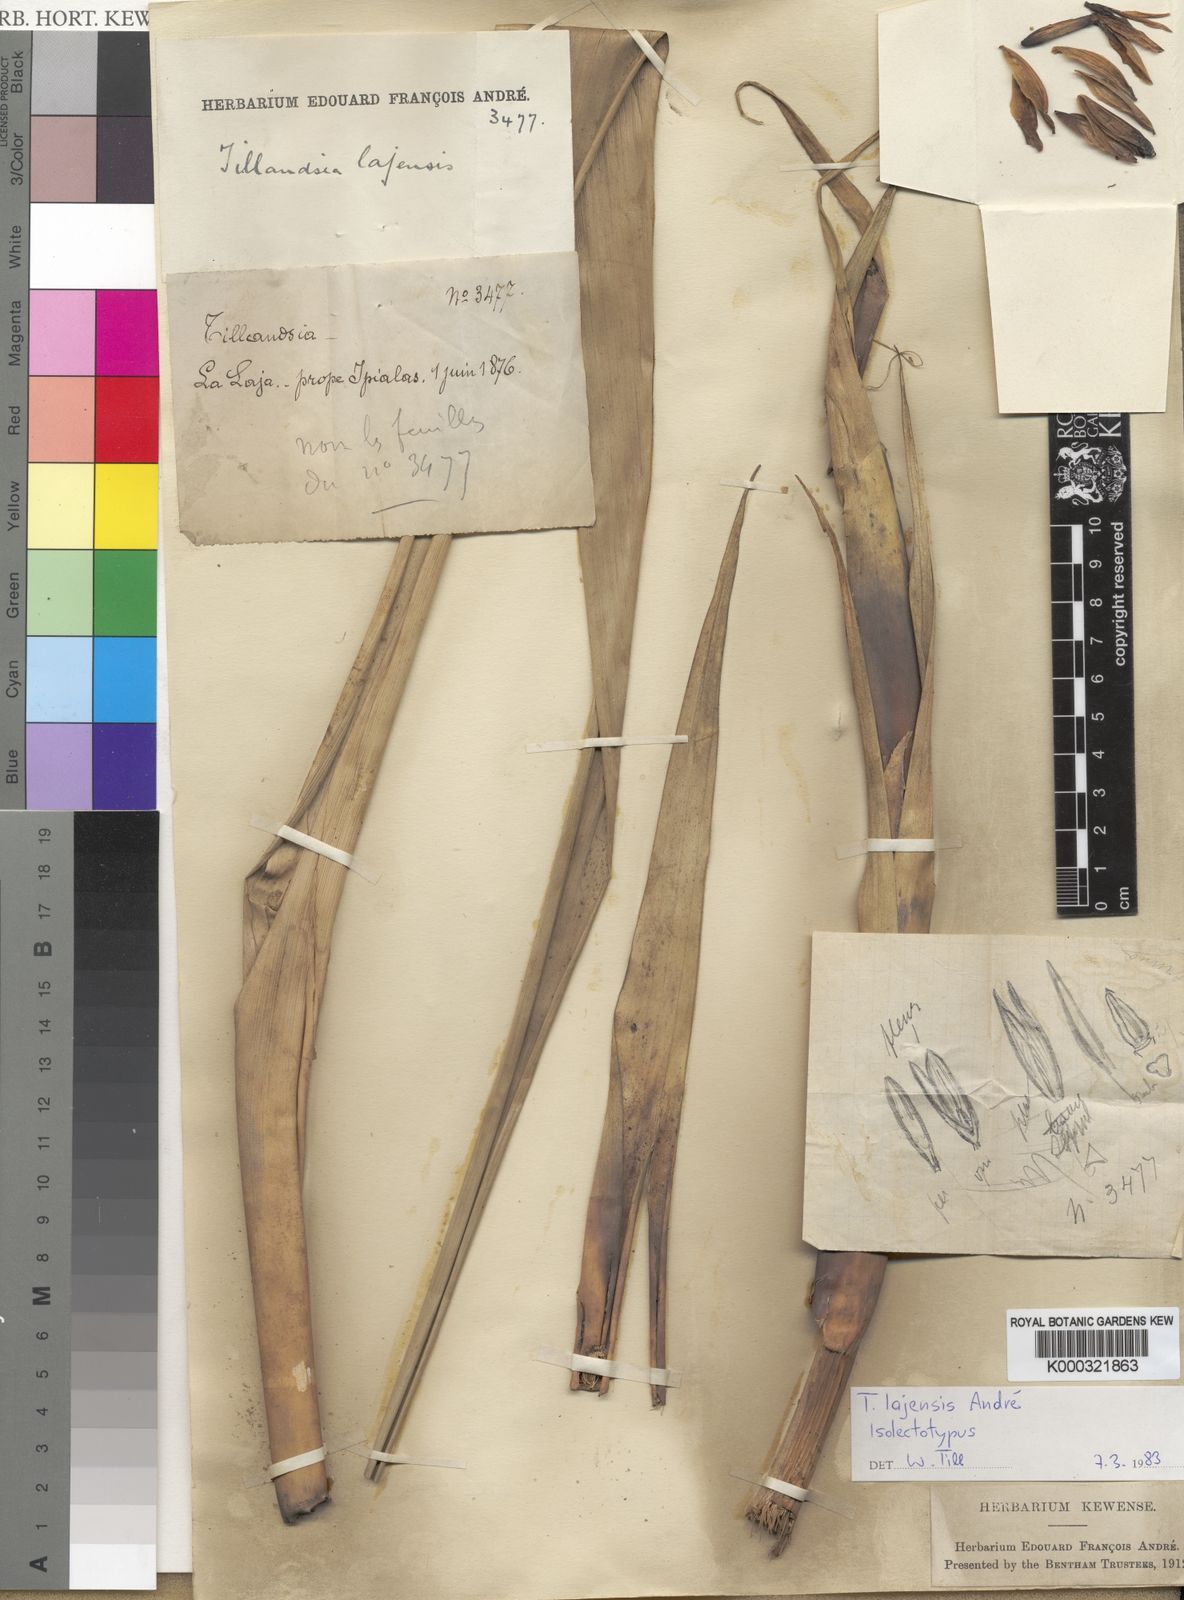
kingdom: Plantae
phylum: Tracheophyta
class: Liliopsida
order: Poales
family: Bromeliaceae
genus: Tillandsia
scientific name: Tillandsia
